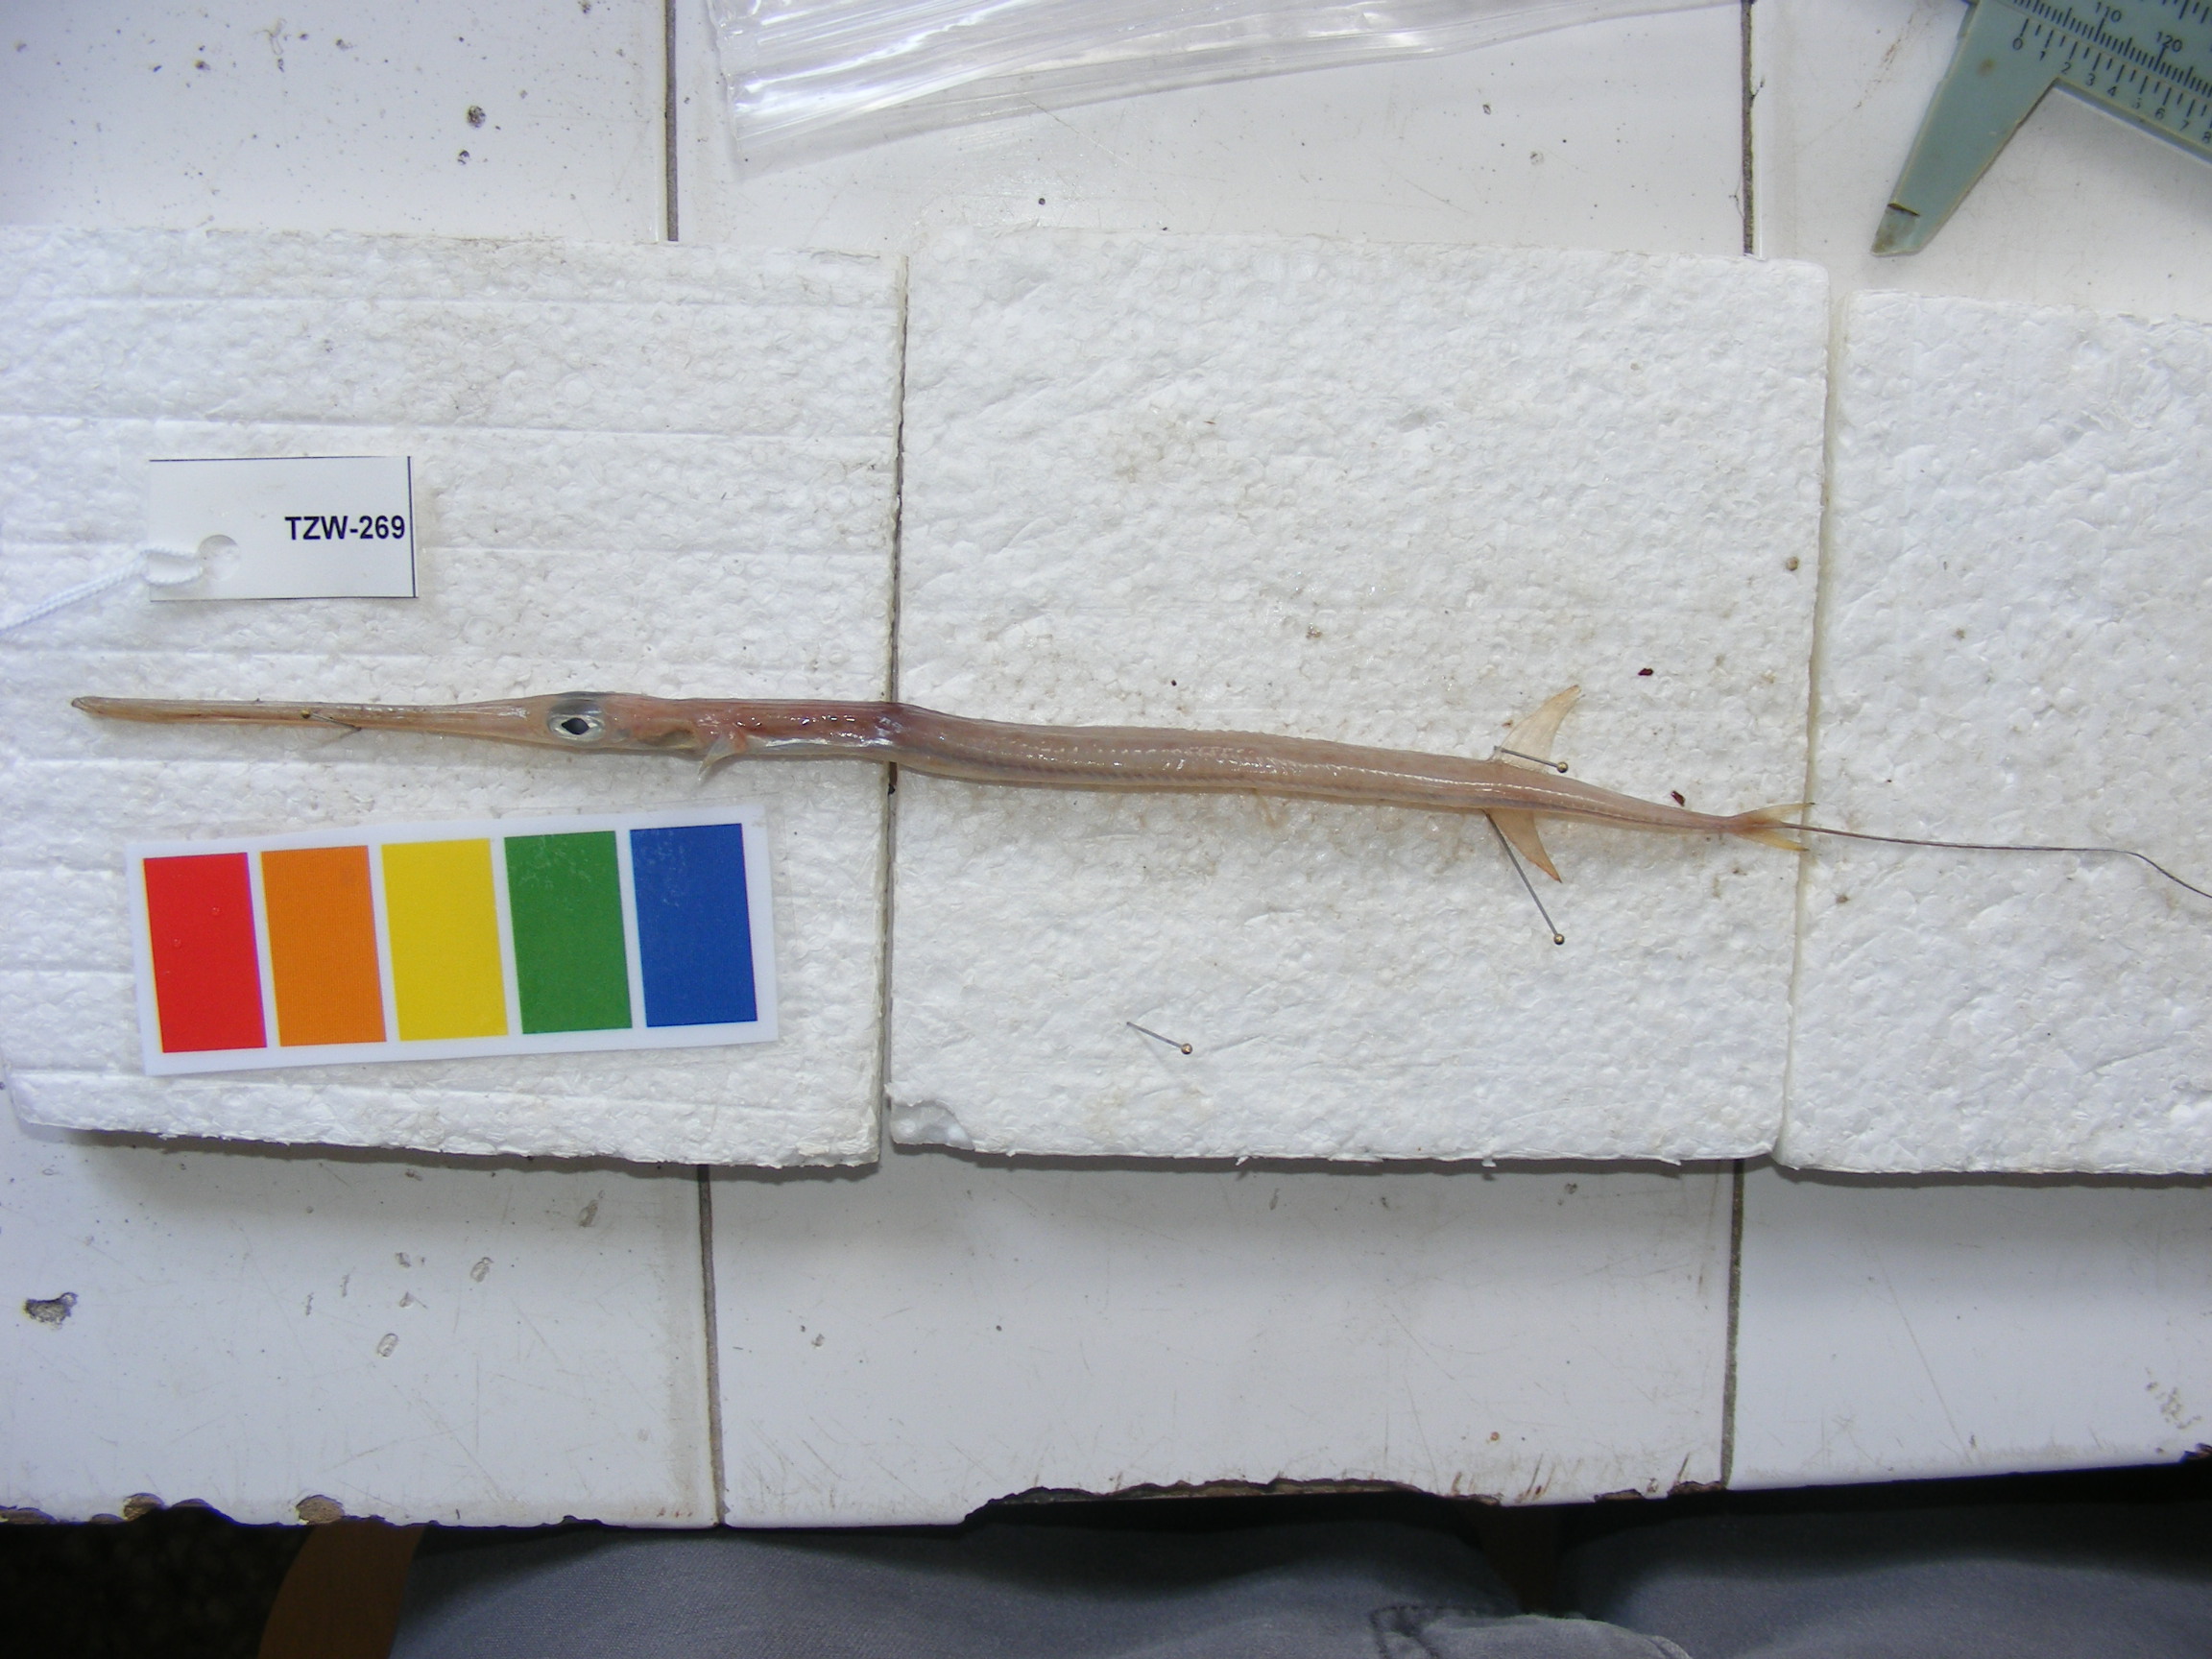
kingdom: Animalia
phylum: Chordata
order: Syngnathiformes
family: Fistulariidae
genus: Fistularia
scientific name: Fistularia petimba
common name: Red cornetfish
